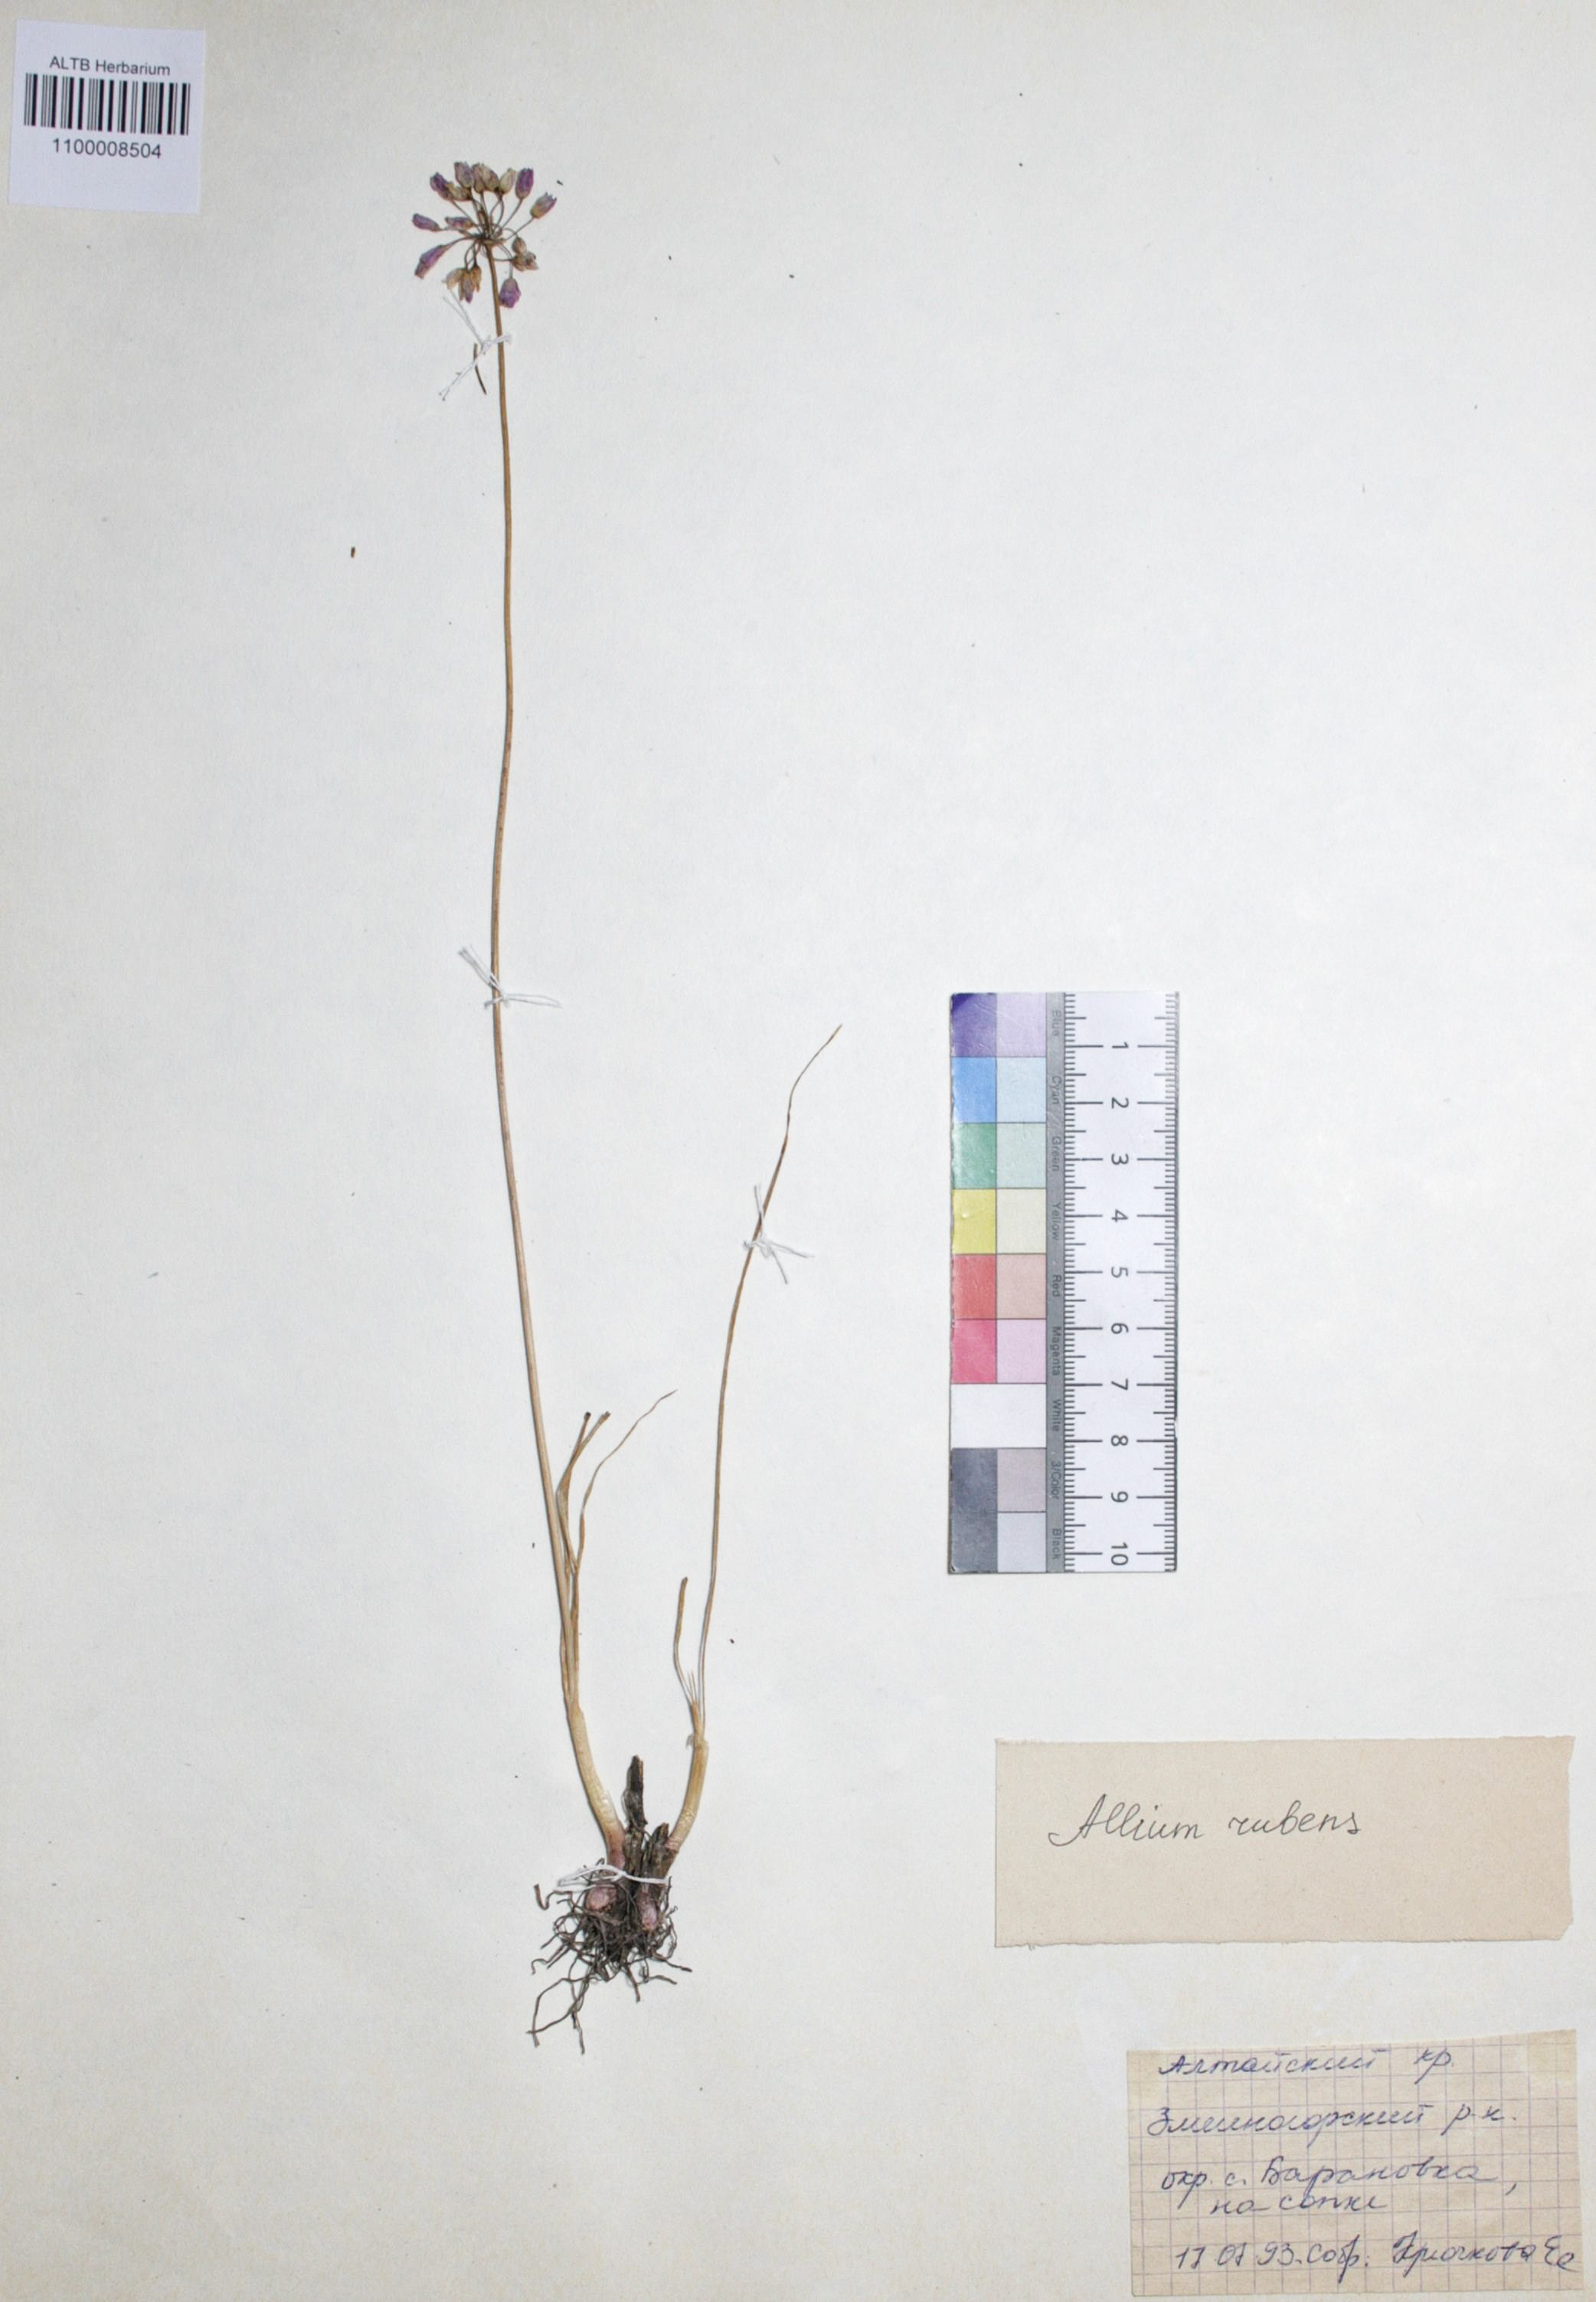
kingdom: Plantae
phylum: Tracheophyta
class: Liliopsida
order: Asparagales
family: Amaryllidaceae
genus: Allium
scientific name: Allium rubens
